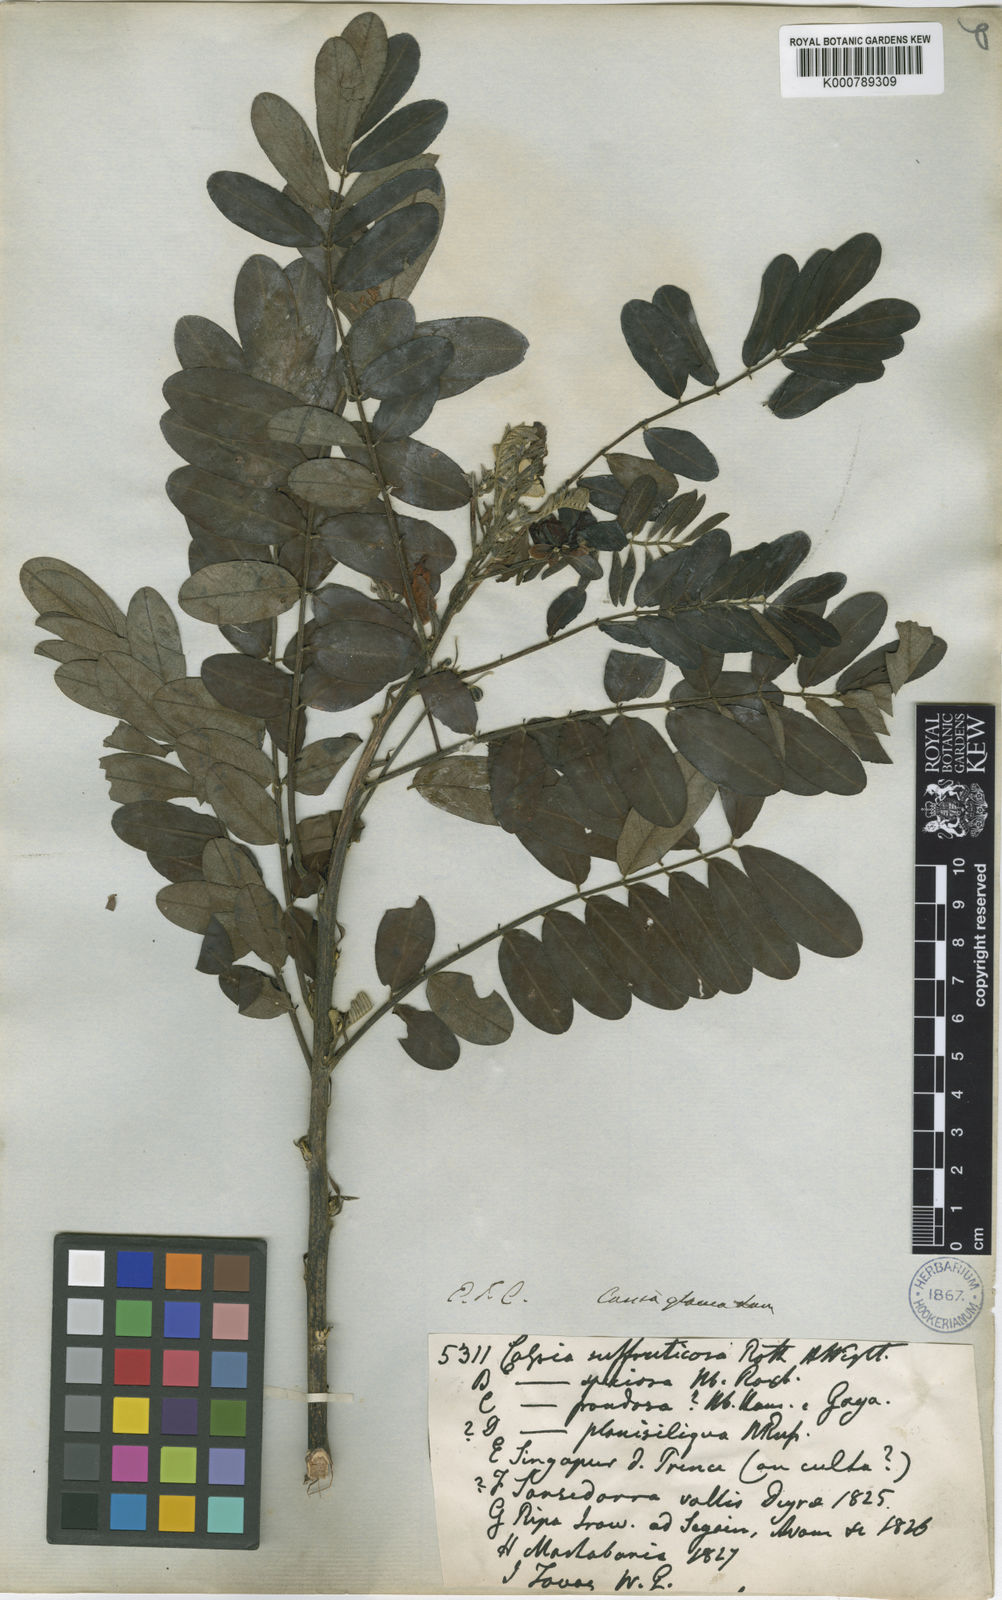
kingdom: Plantae
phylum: Tracheophyta
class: Magnoliopsida
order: Fabales
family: Fabaceae
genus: Senna
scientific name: Senna surattensis
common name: Glossy shower
